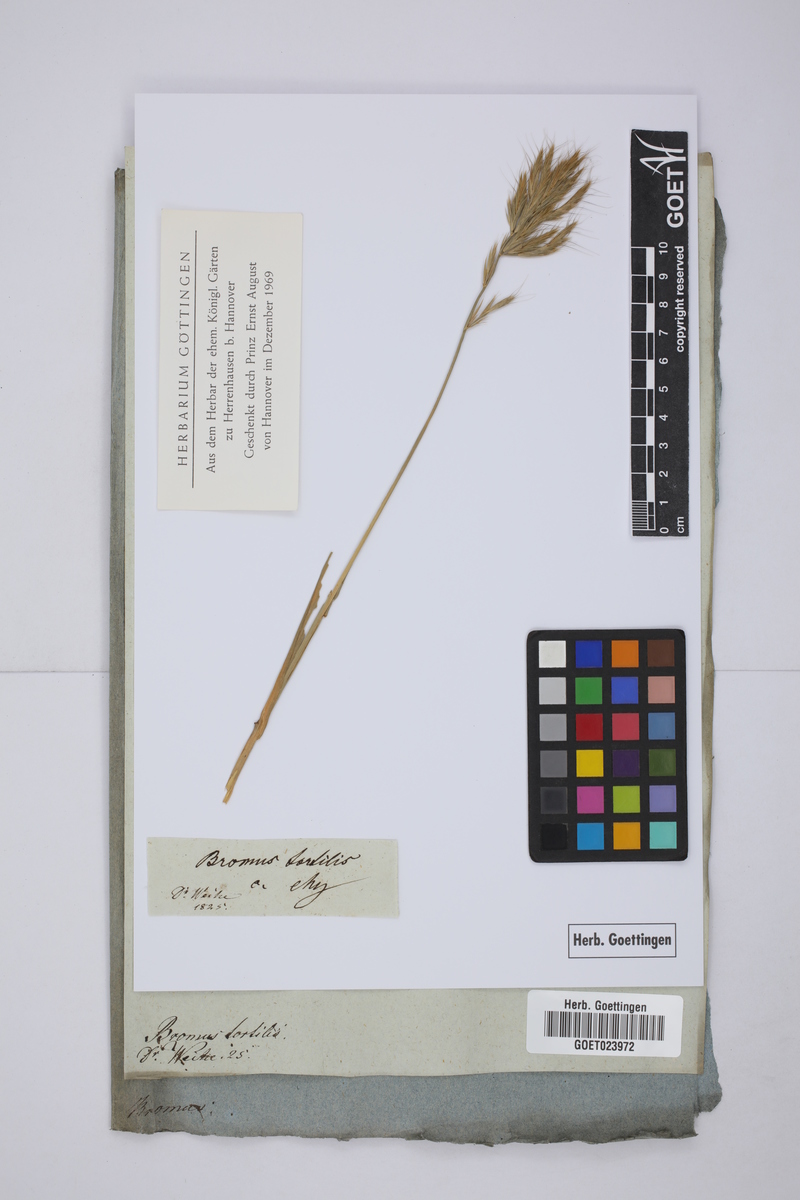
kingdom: Plantae
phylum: Tracheophyta
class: Liliopsida
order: Poales
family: Poaceae
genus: Bromus
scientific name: Bromus tortilis
